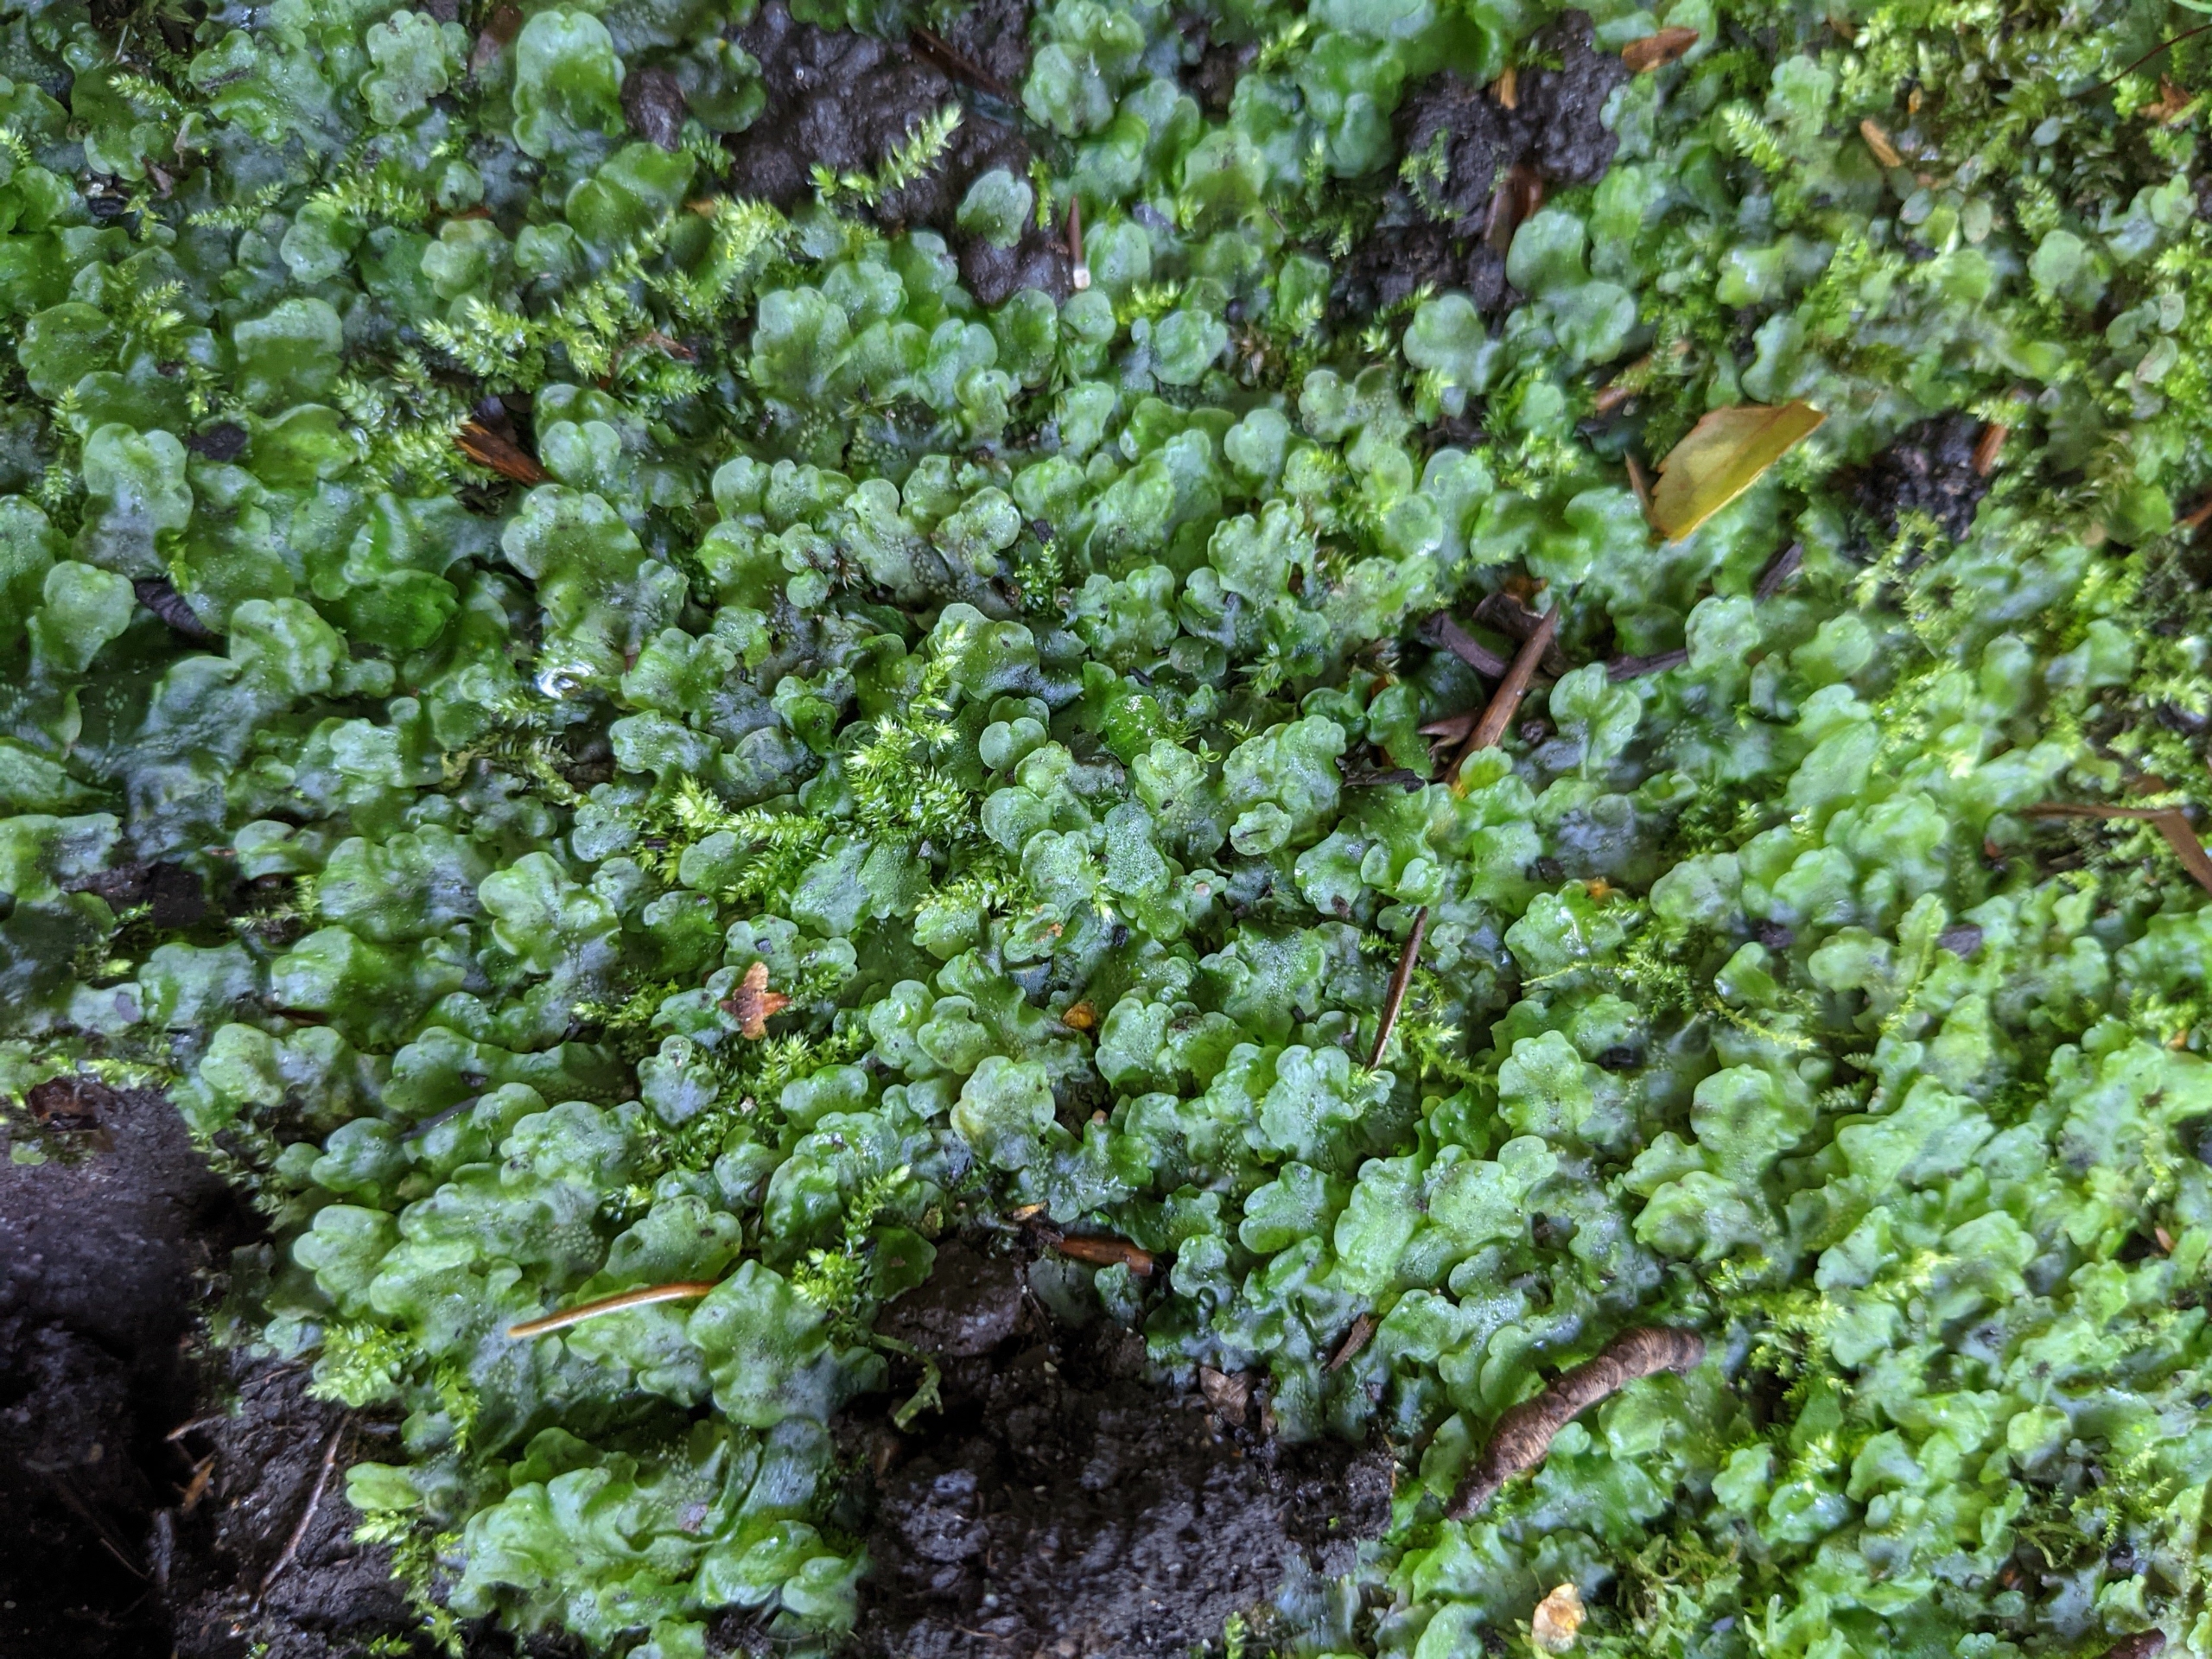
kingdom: Plantae
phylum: Marchantiophyta
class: Jungermanniopsida
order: Pelliales
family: Pelliaceae
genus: Pellia
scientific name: Pellia epiphylla
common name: Enbo ribbeløv
